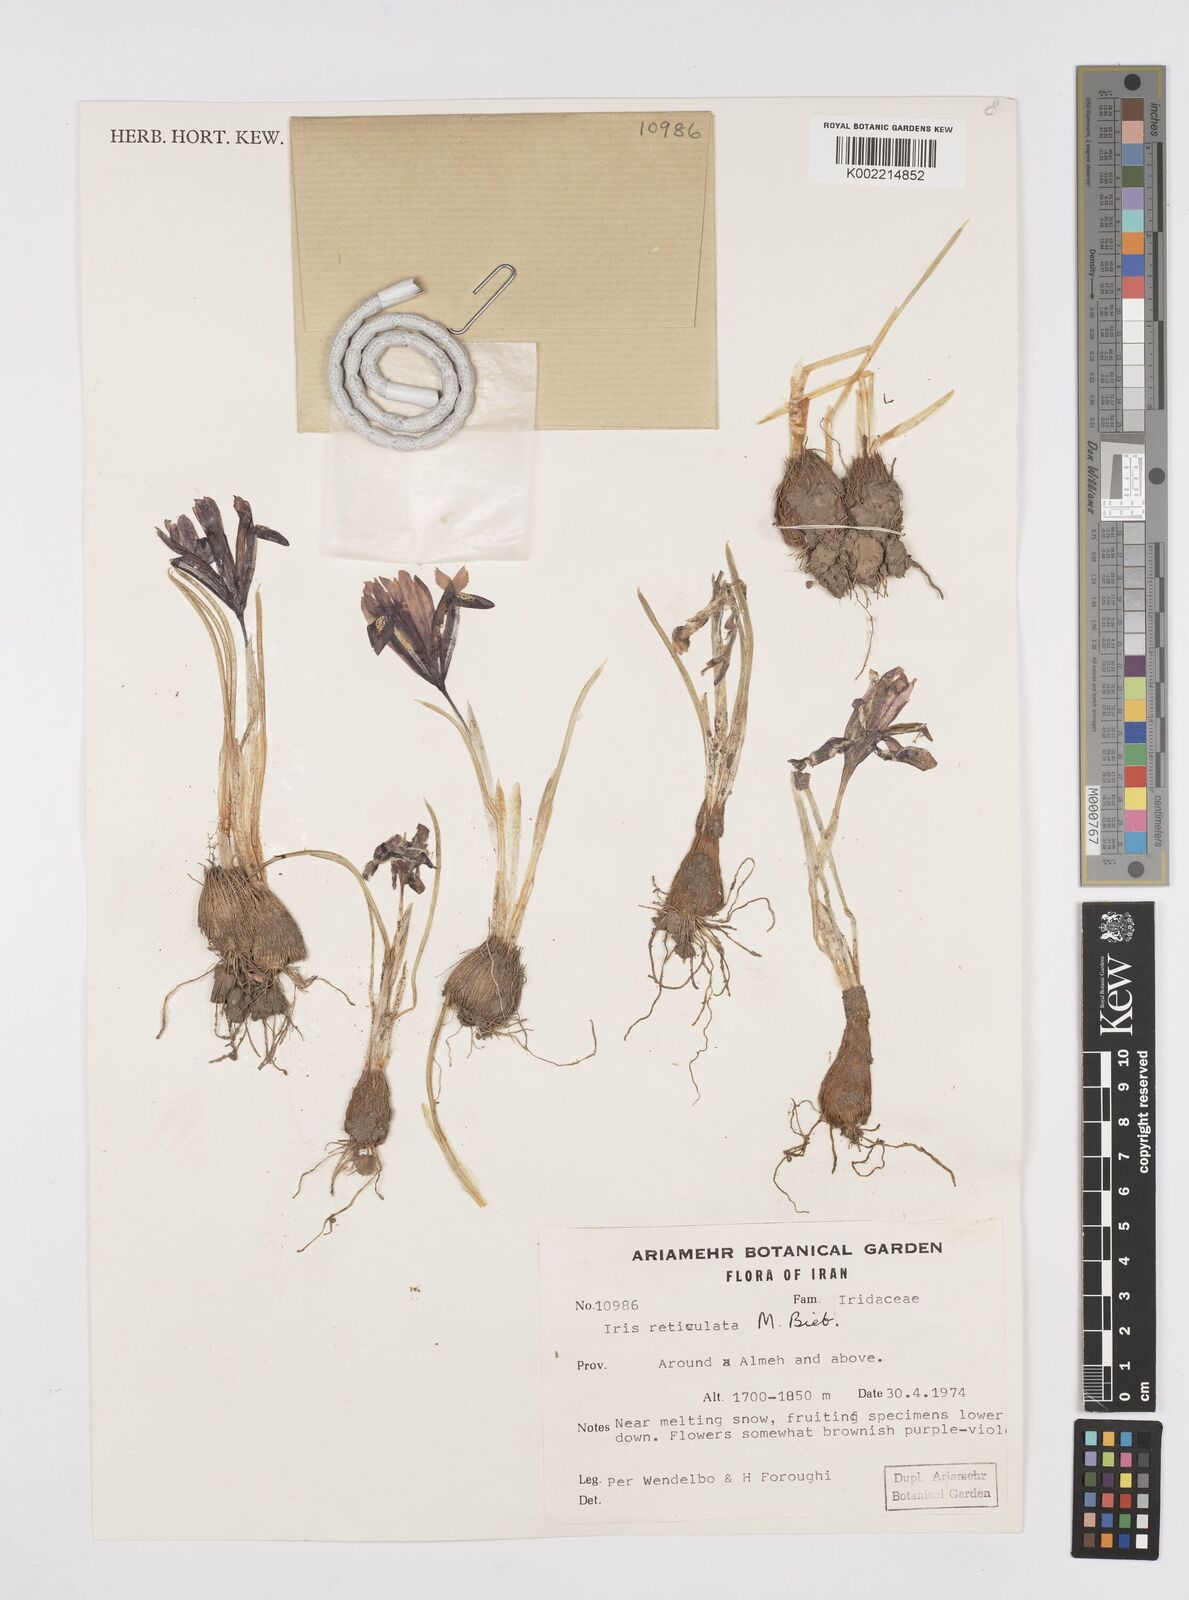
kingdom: Plantae
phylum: Tracheophyta
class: Liliopsida
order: Asparagales
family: Iridaceae
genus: Iris
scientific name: Iris reticulata
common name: Netted iris
